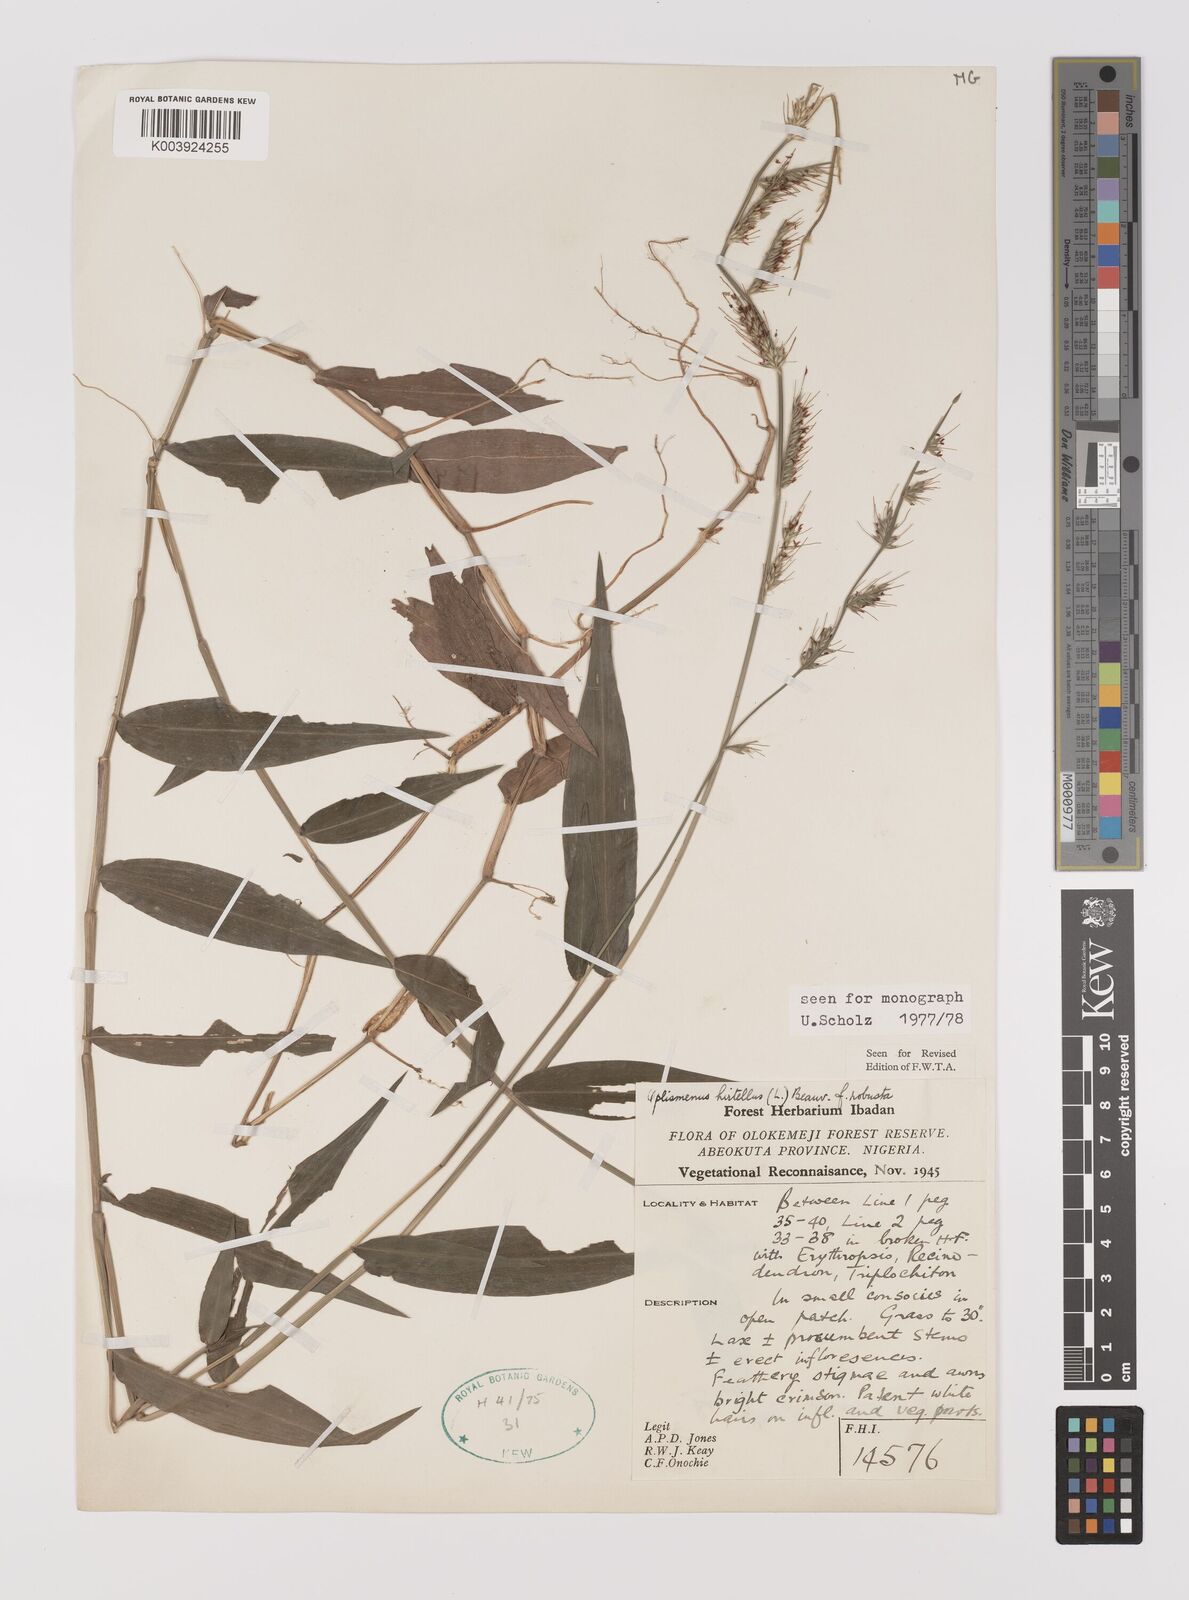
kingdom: Plantae
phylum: Tracheophyta
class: Liliopsida
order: Poales
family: Poaceae
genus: Oplismenus
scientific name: Oplismenus hirtellus
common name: Basketgrass
